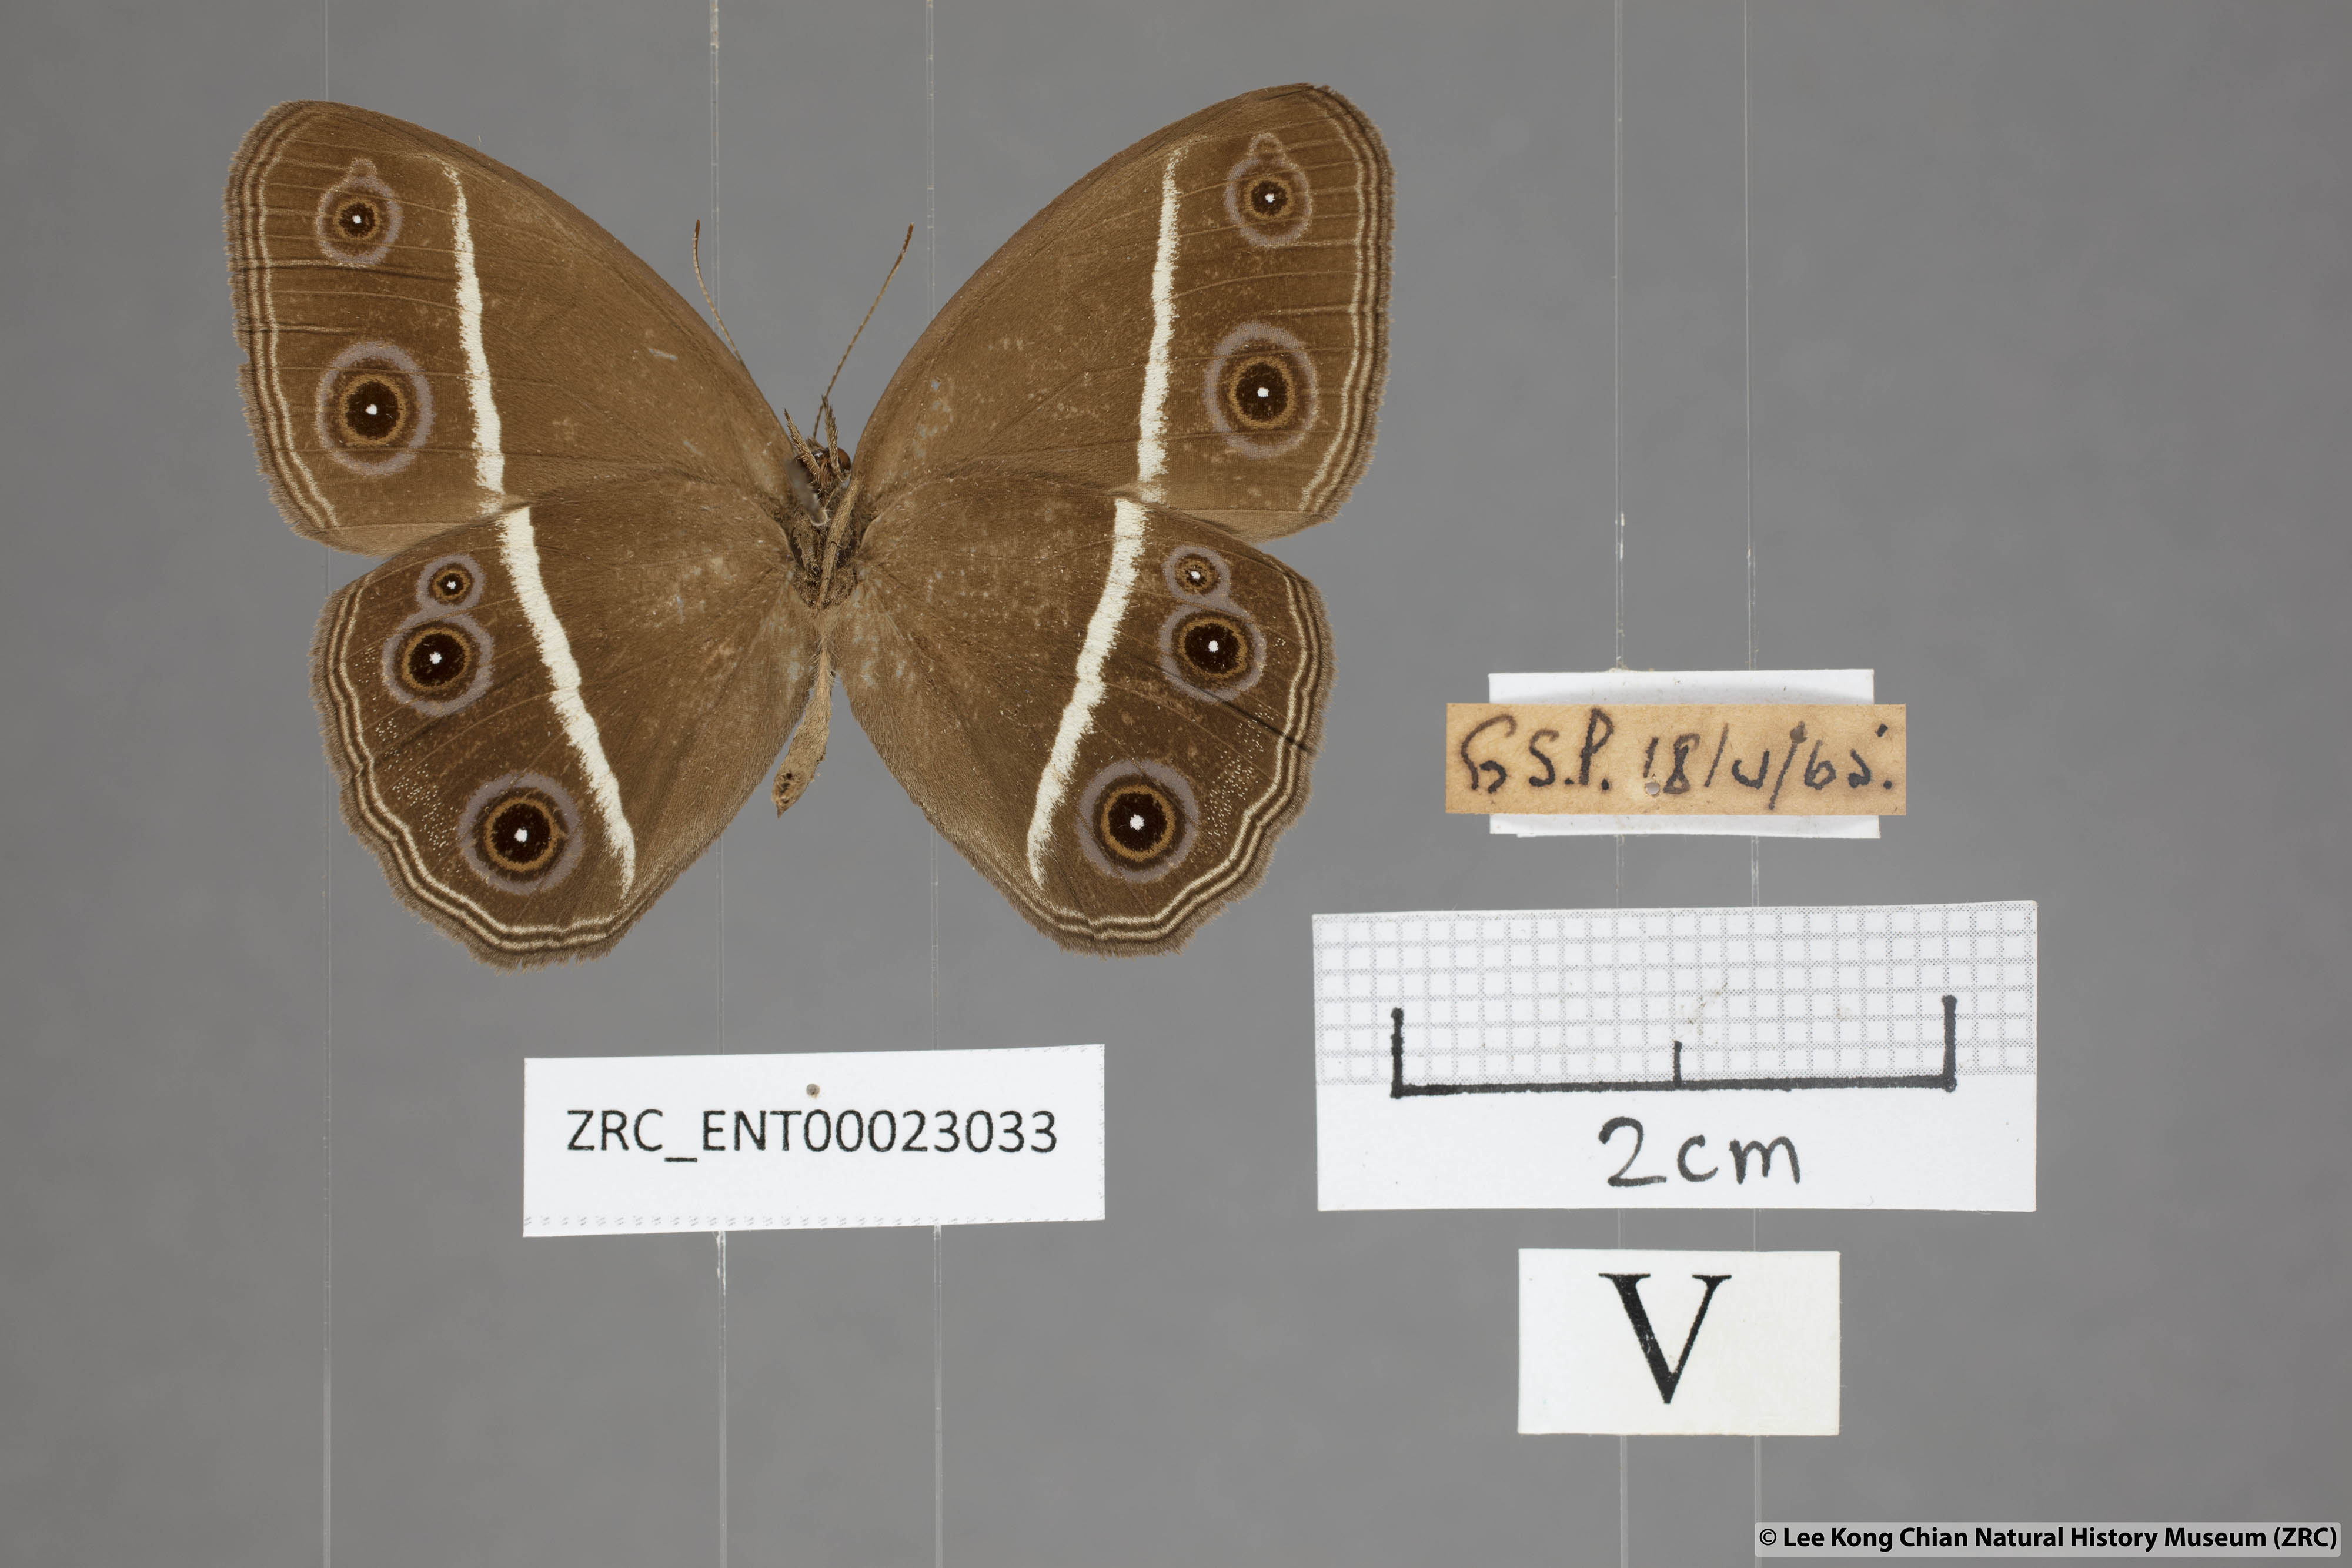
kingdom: Animalia
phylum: Arthropoda
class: Insecta
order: Lepidoptera
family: Nymphalidae
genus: Orsotriaena
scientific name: Orsotriaena medus
